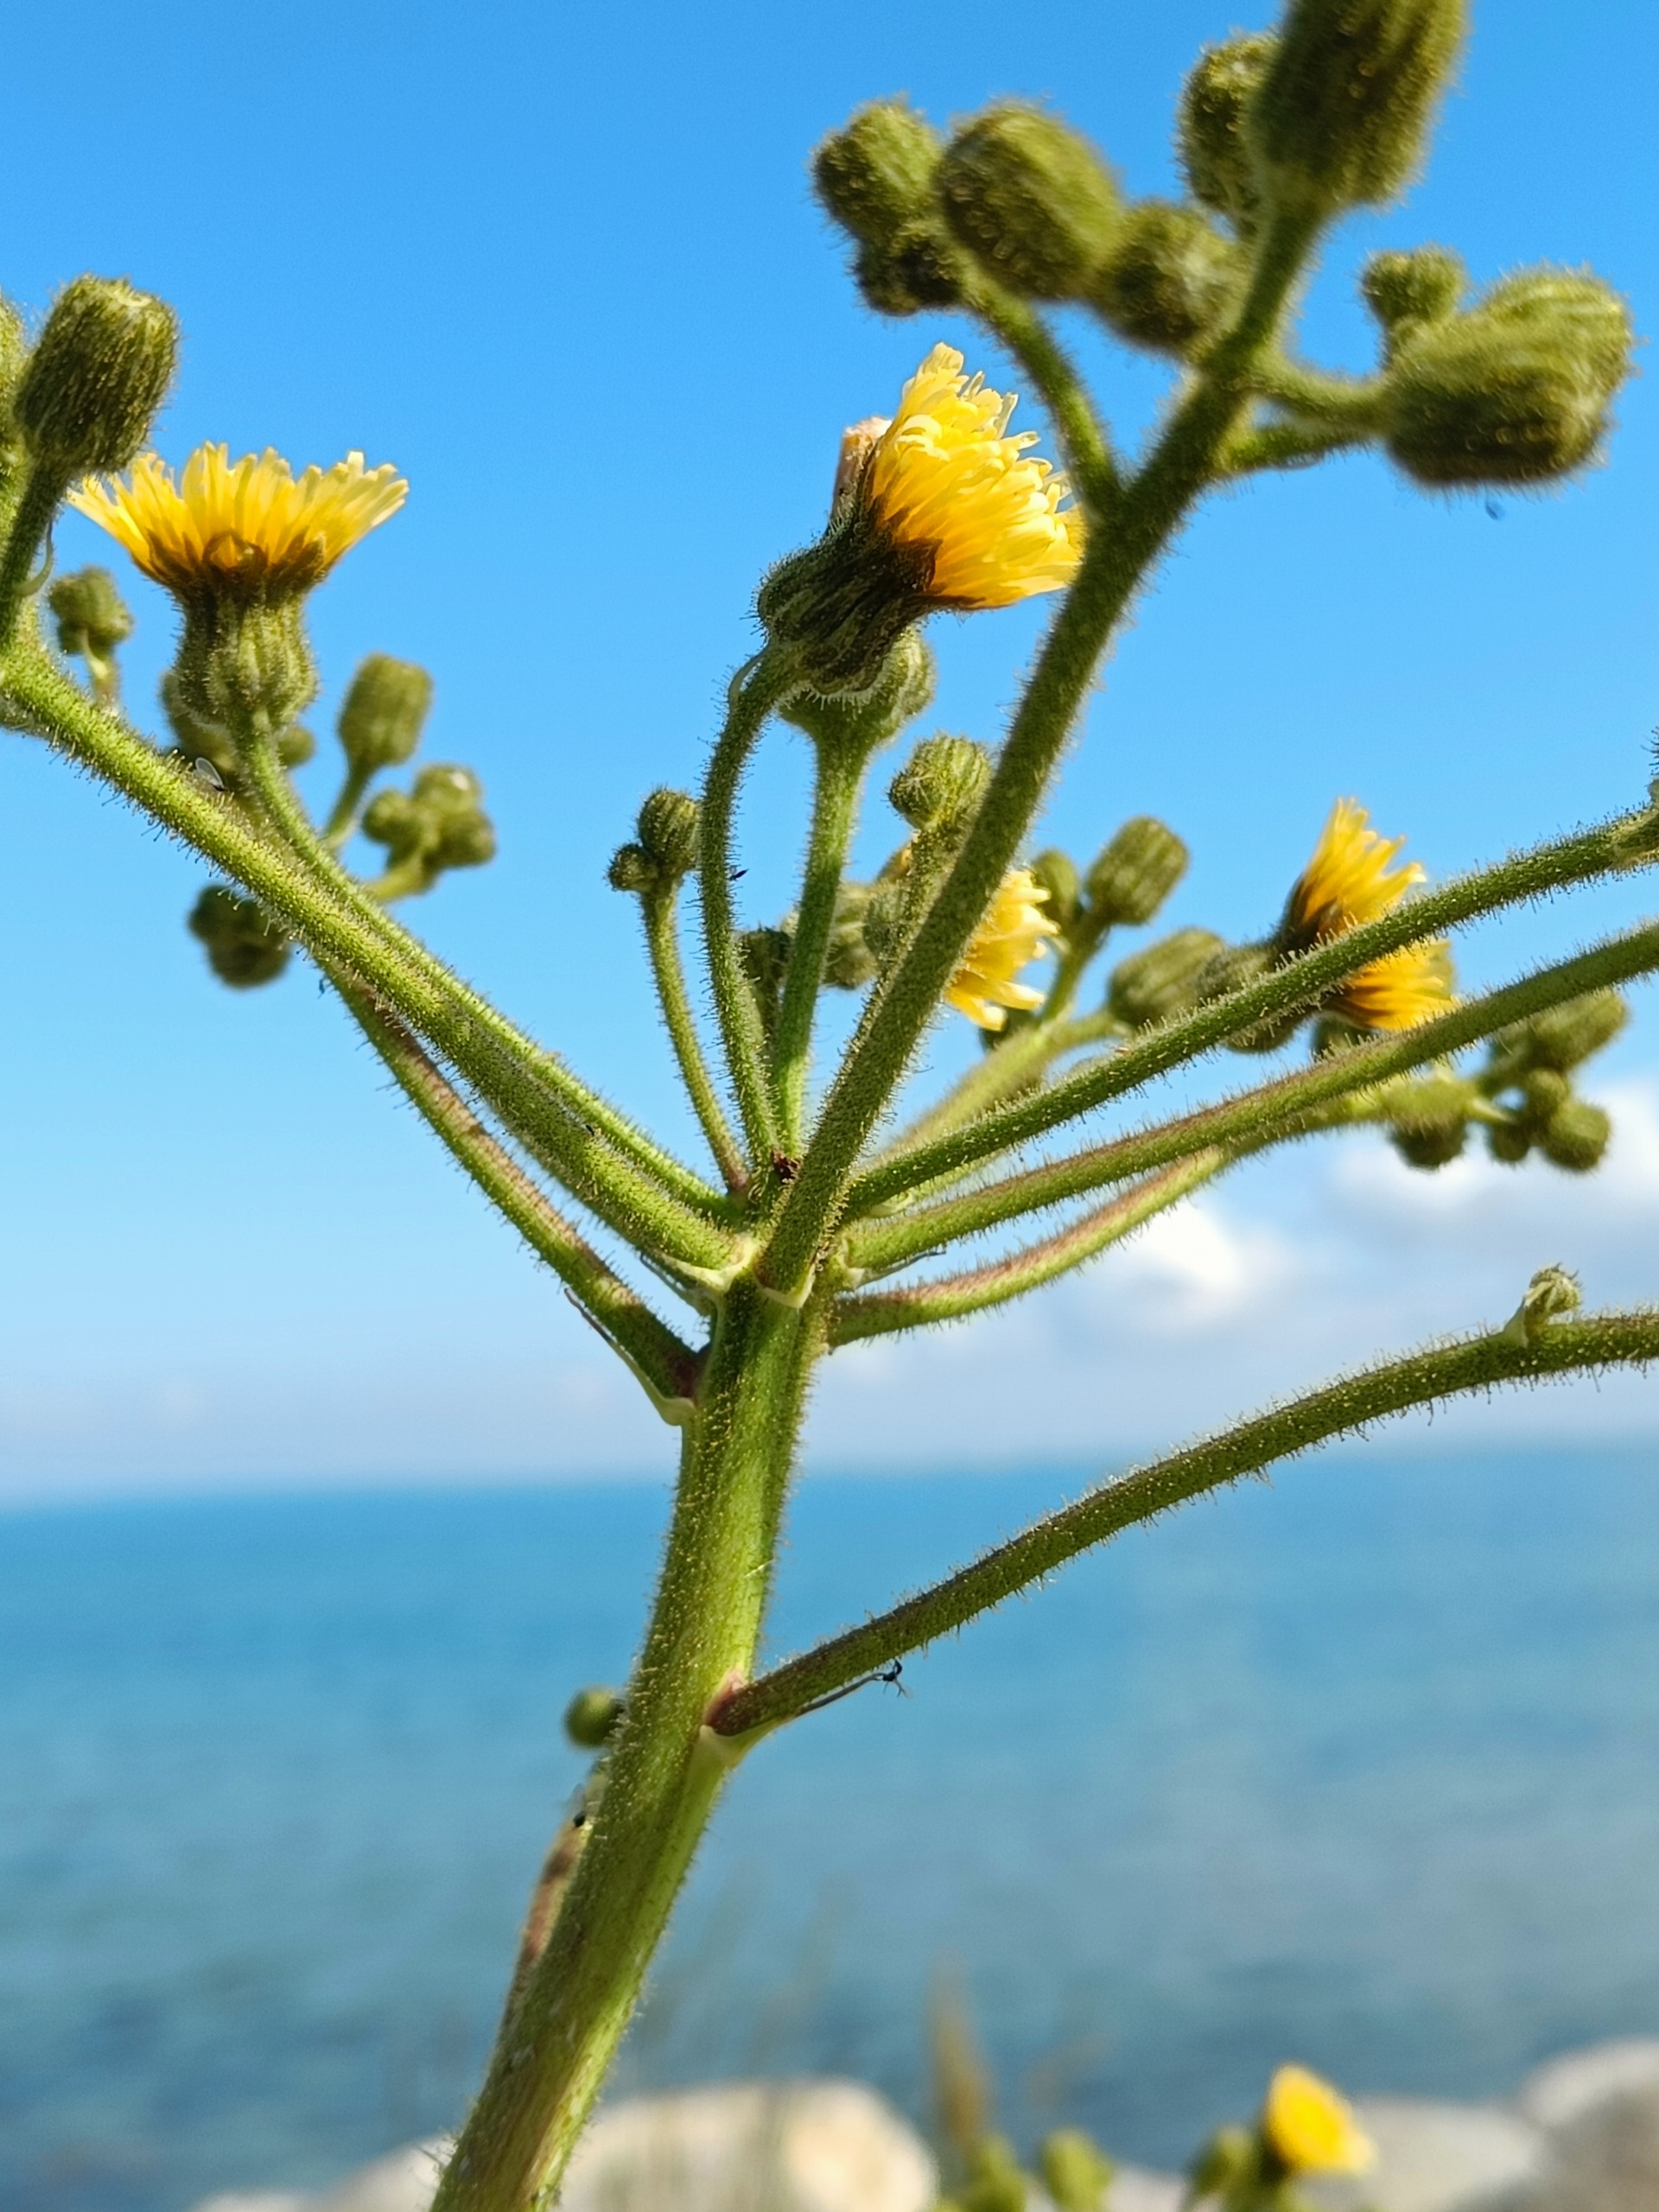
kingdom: Plantae
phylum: Tracheophyta
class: Magnoliopsida
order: Asterales
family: Asteraceae
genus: Sonchus
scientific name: Sonchus palustris
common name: Kær-svinemælk
